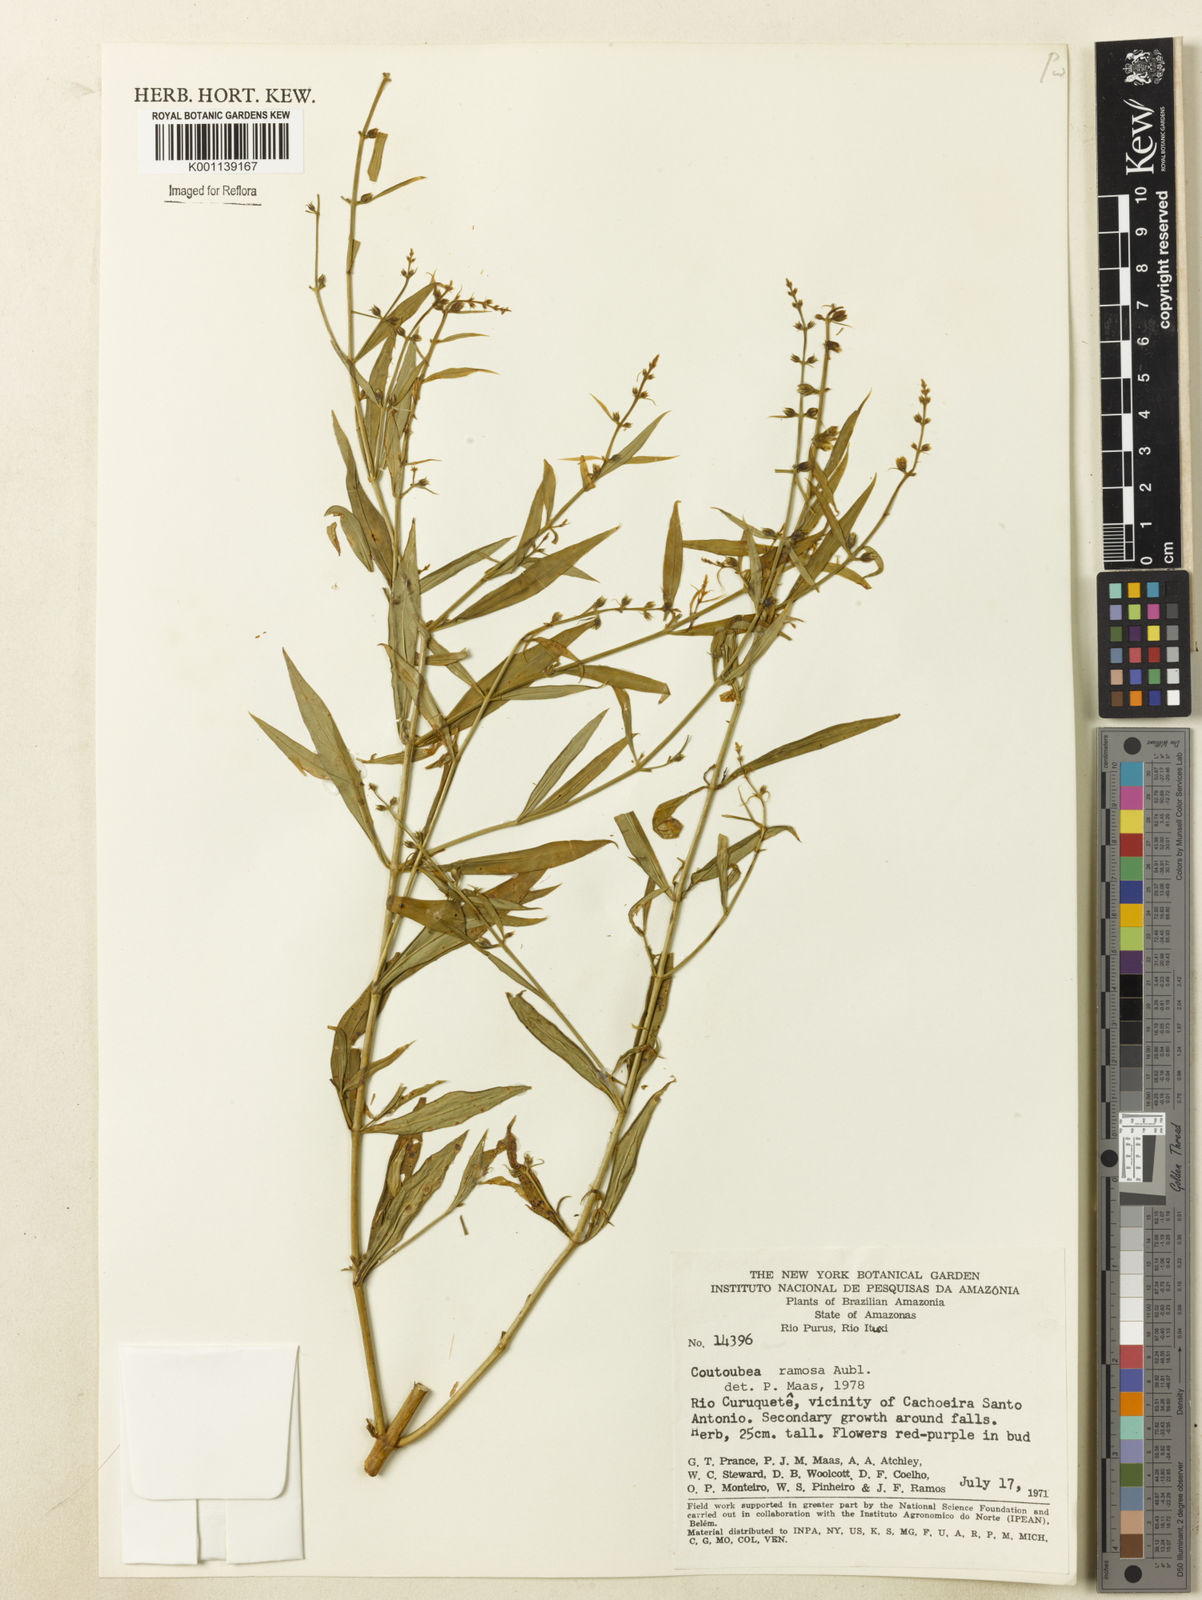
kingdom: Plantae
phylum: Tracheophyta
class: Magnoliopsida
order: Gentianales
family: Gentianaceae
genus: Coutoubea
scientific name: Coutoubea ramosa
